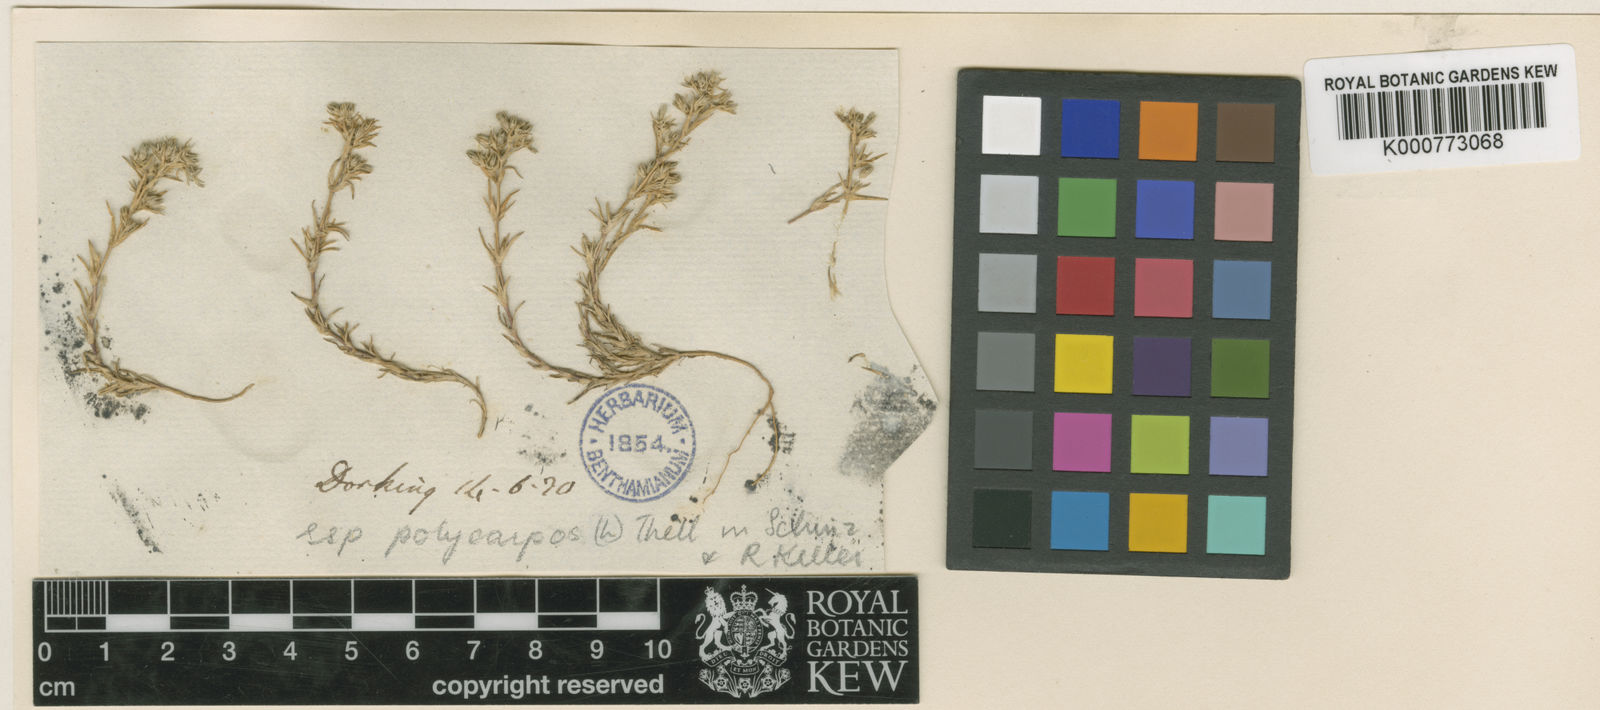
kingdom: Plantae
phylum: Tracheophyta
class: Magnoliopsida
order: Caryophyllales
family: Caryophyllaceae
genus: Scleranthus
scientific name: Scleranthus annuus
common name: Annual knawel
